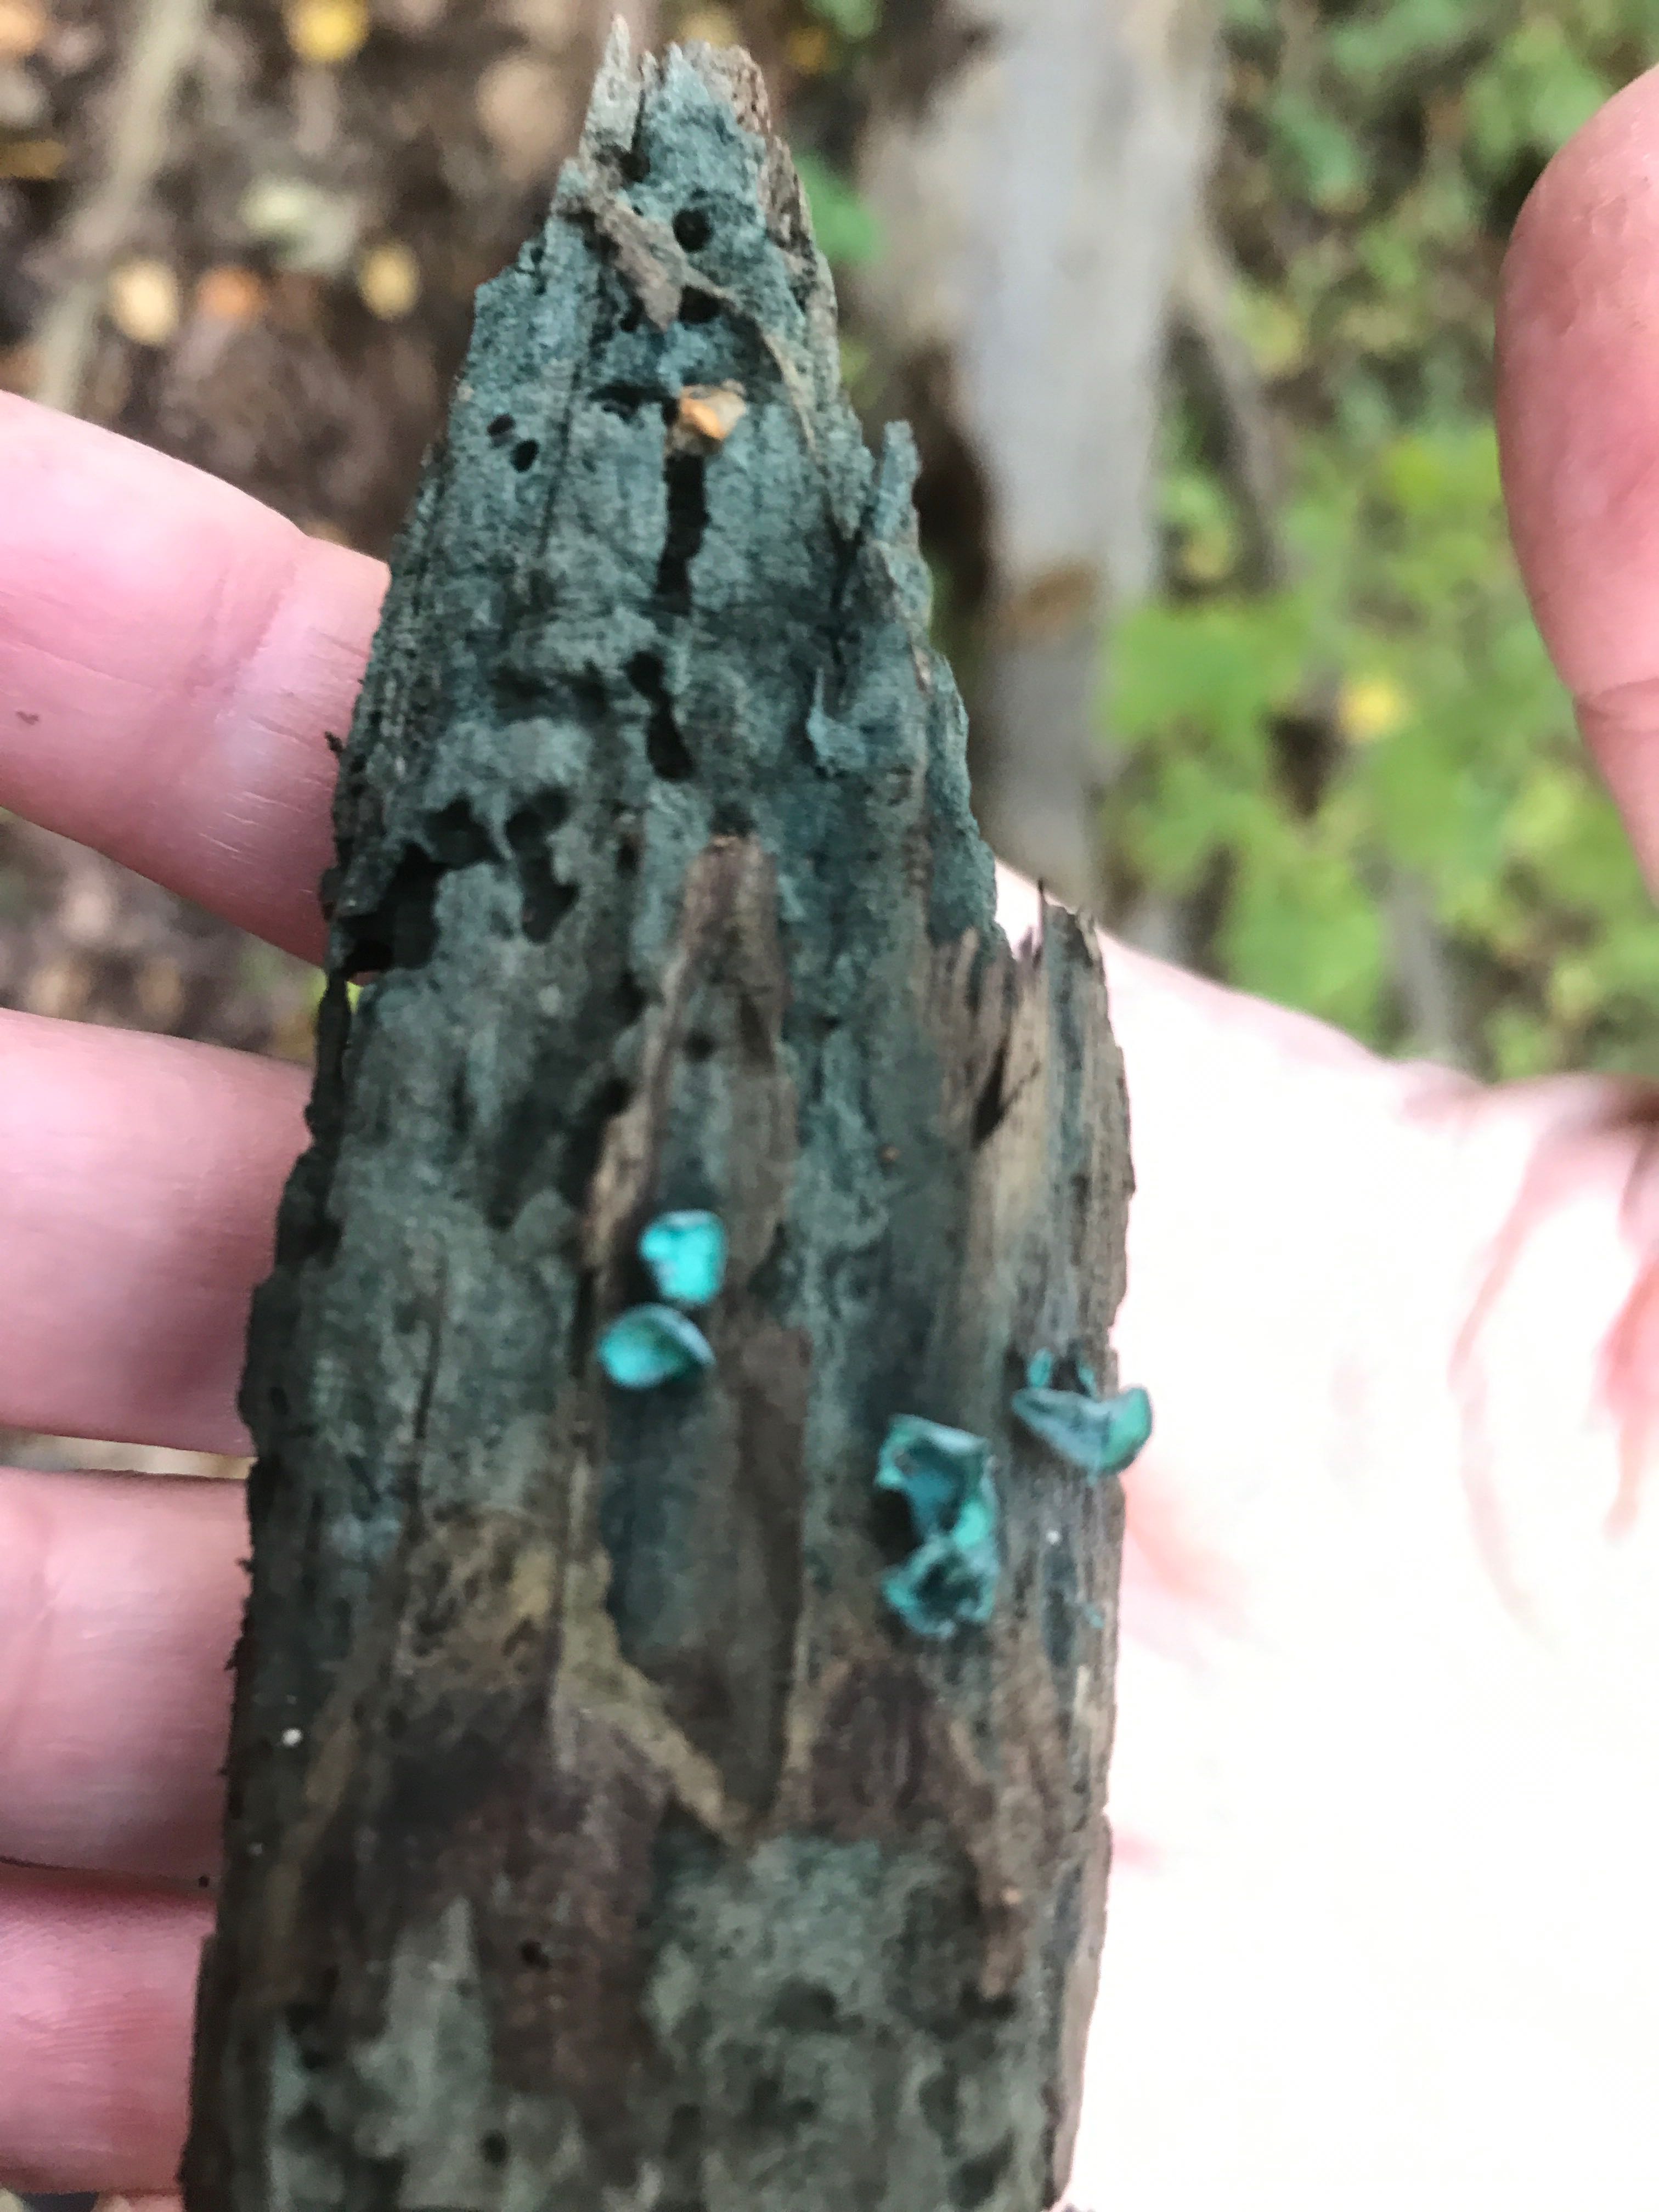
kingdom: Fungi
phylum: Ascomycota
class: Leotiomycetes
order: Helotiales
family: Chlorociboriaceae
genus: Chlorociboria
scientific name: Chlorociboria aeruginascens
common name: almindelig grønskive
